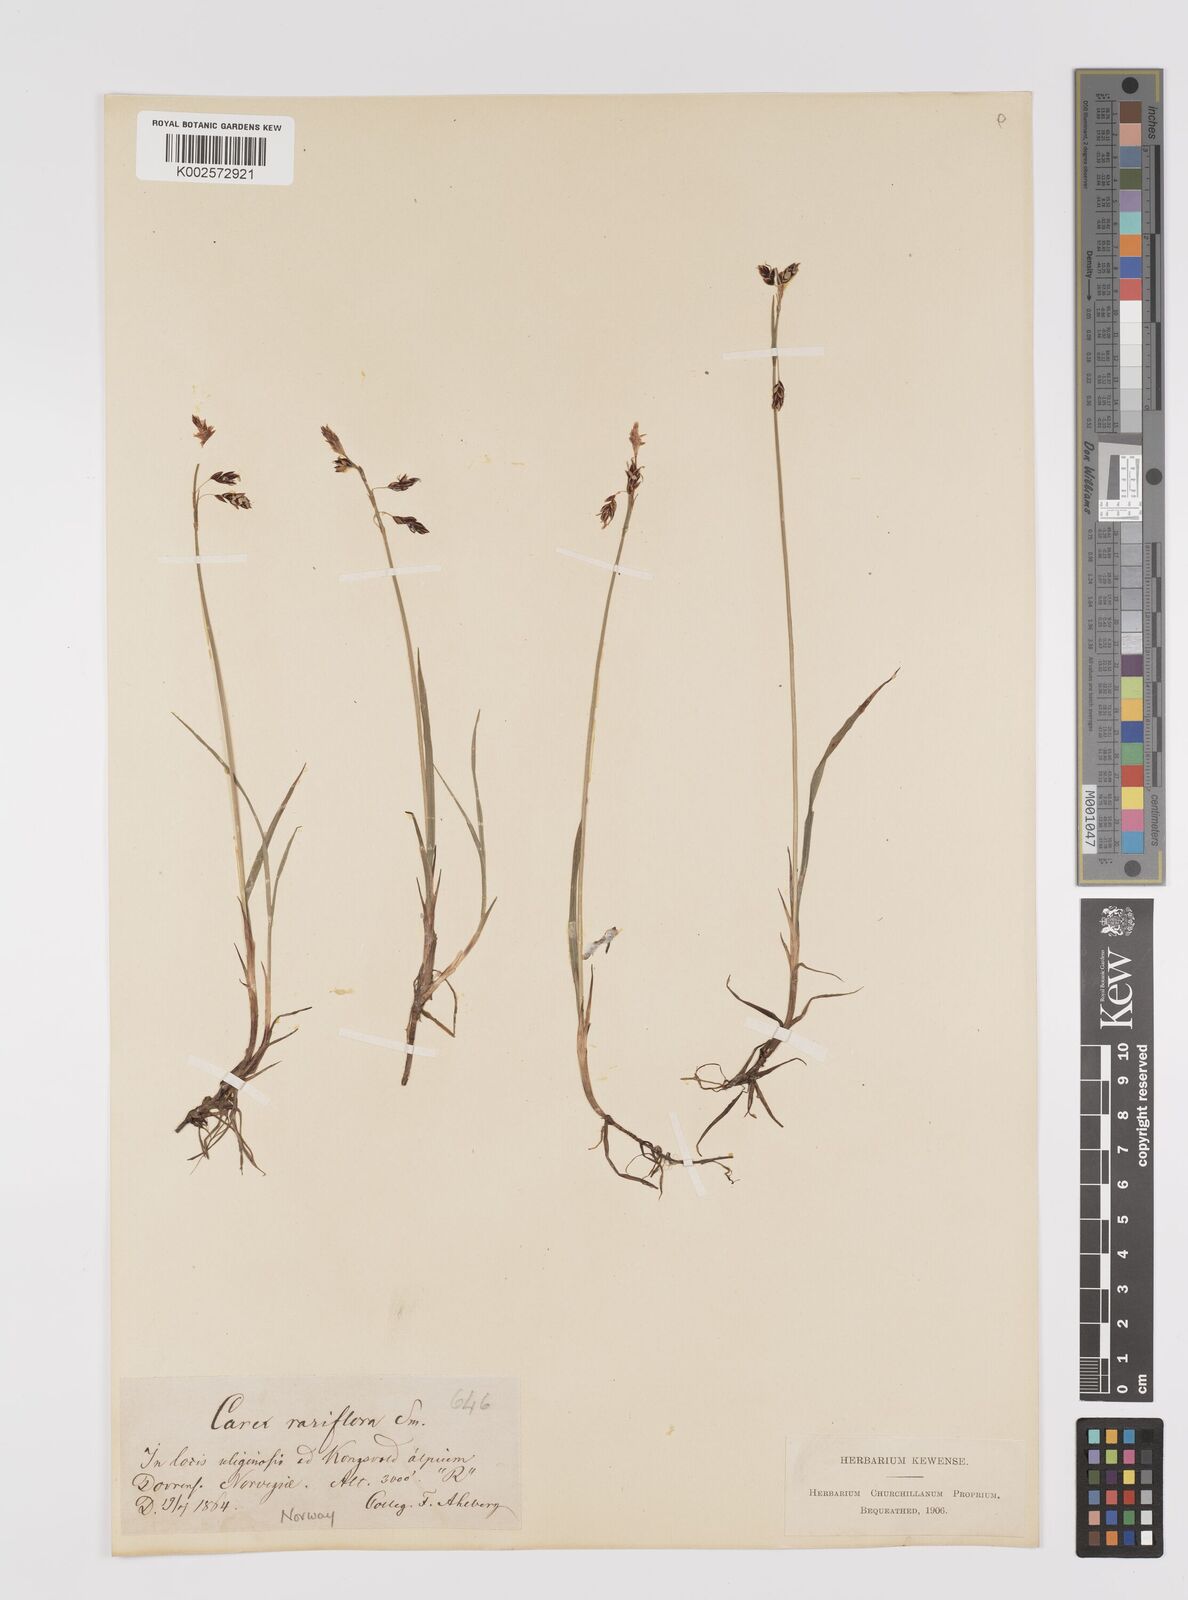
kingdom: Plantae
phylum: Tracheophyta
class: Liliopsida
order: Poales
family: Cyperaceae
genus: Carex
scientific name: Carex rariflora
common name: Loose-flowered alpine sedge
